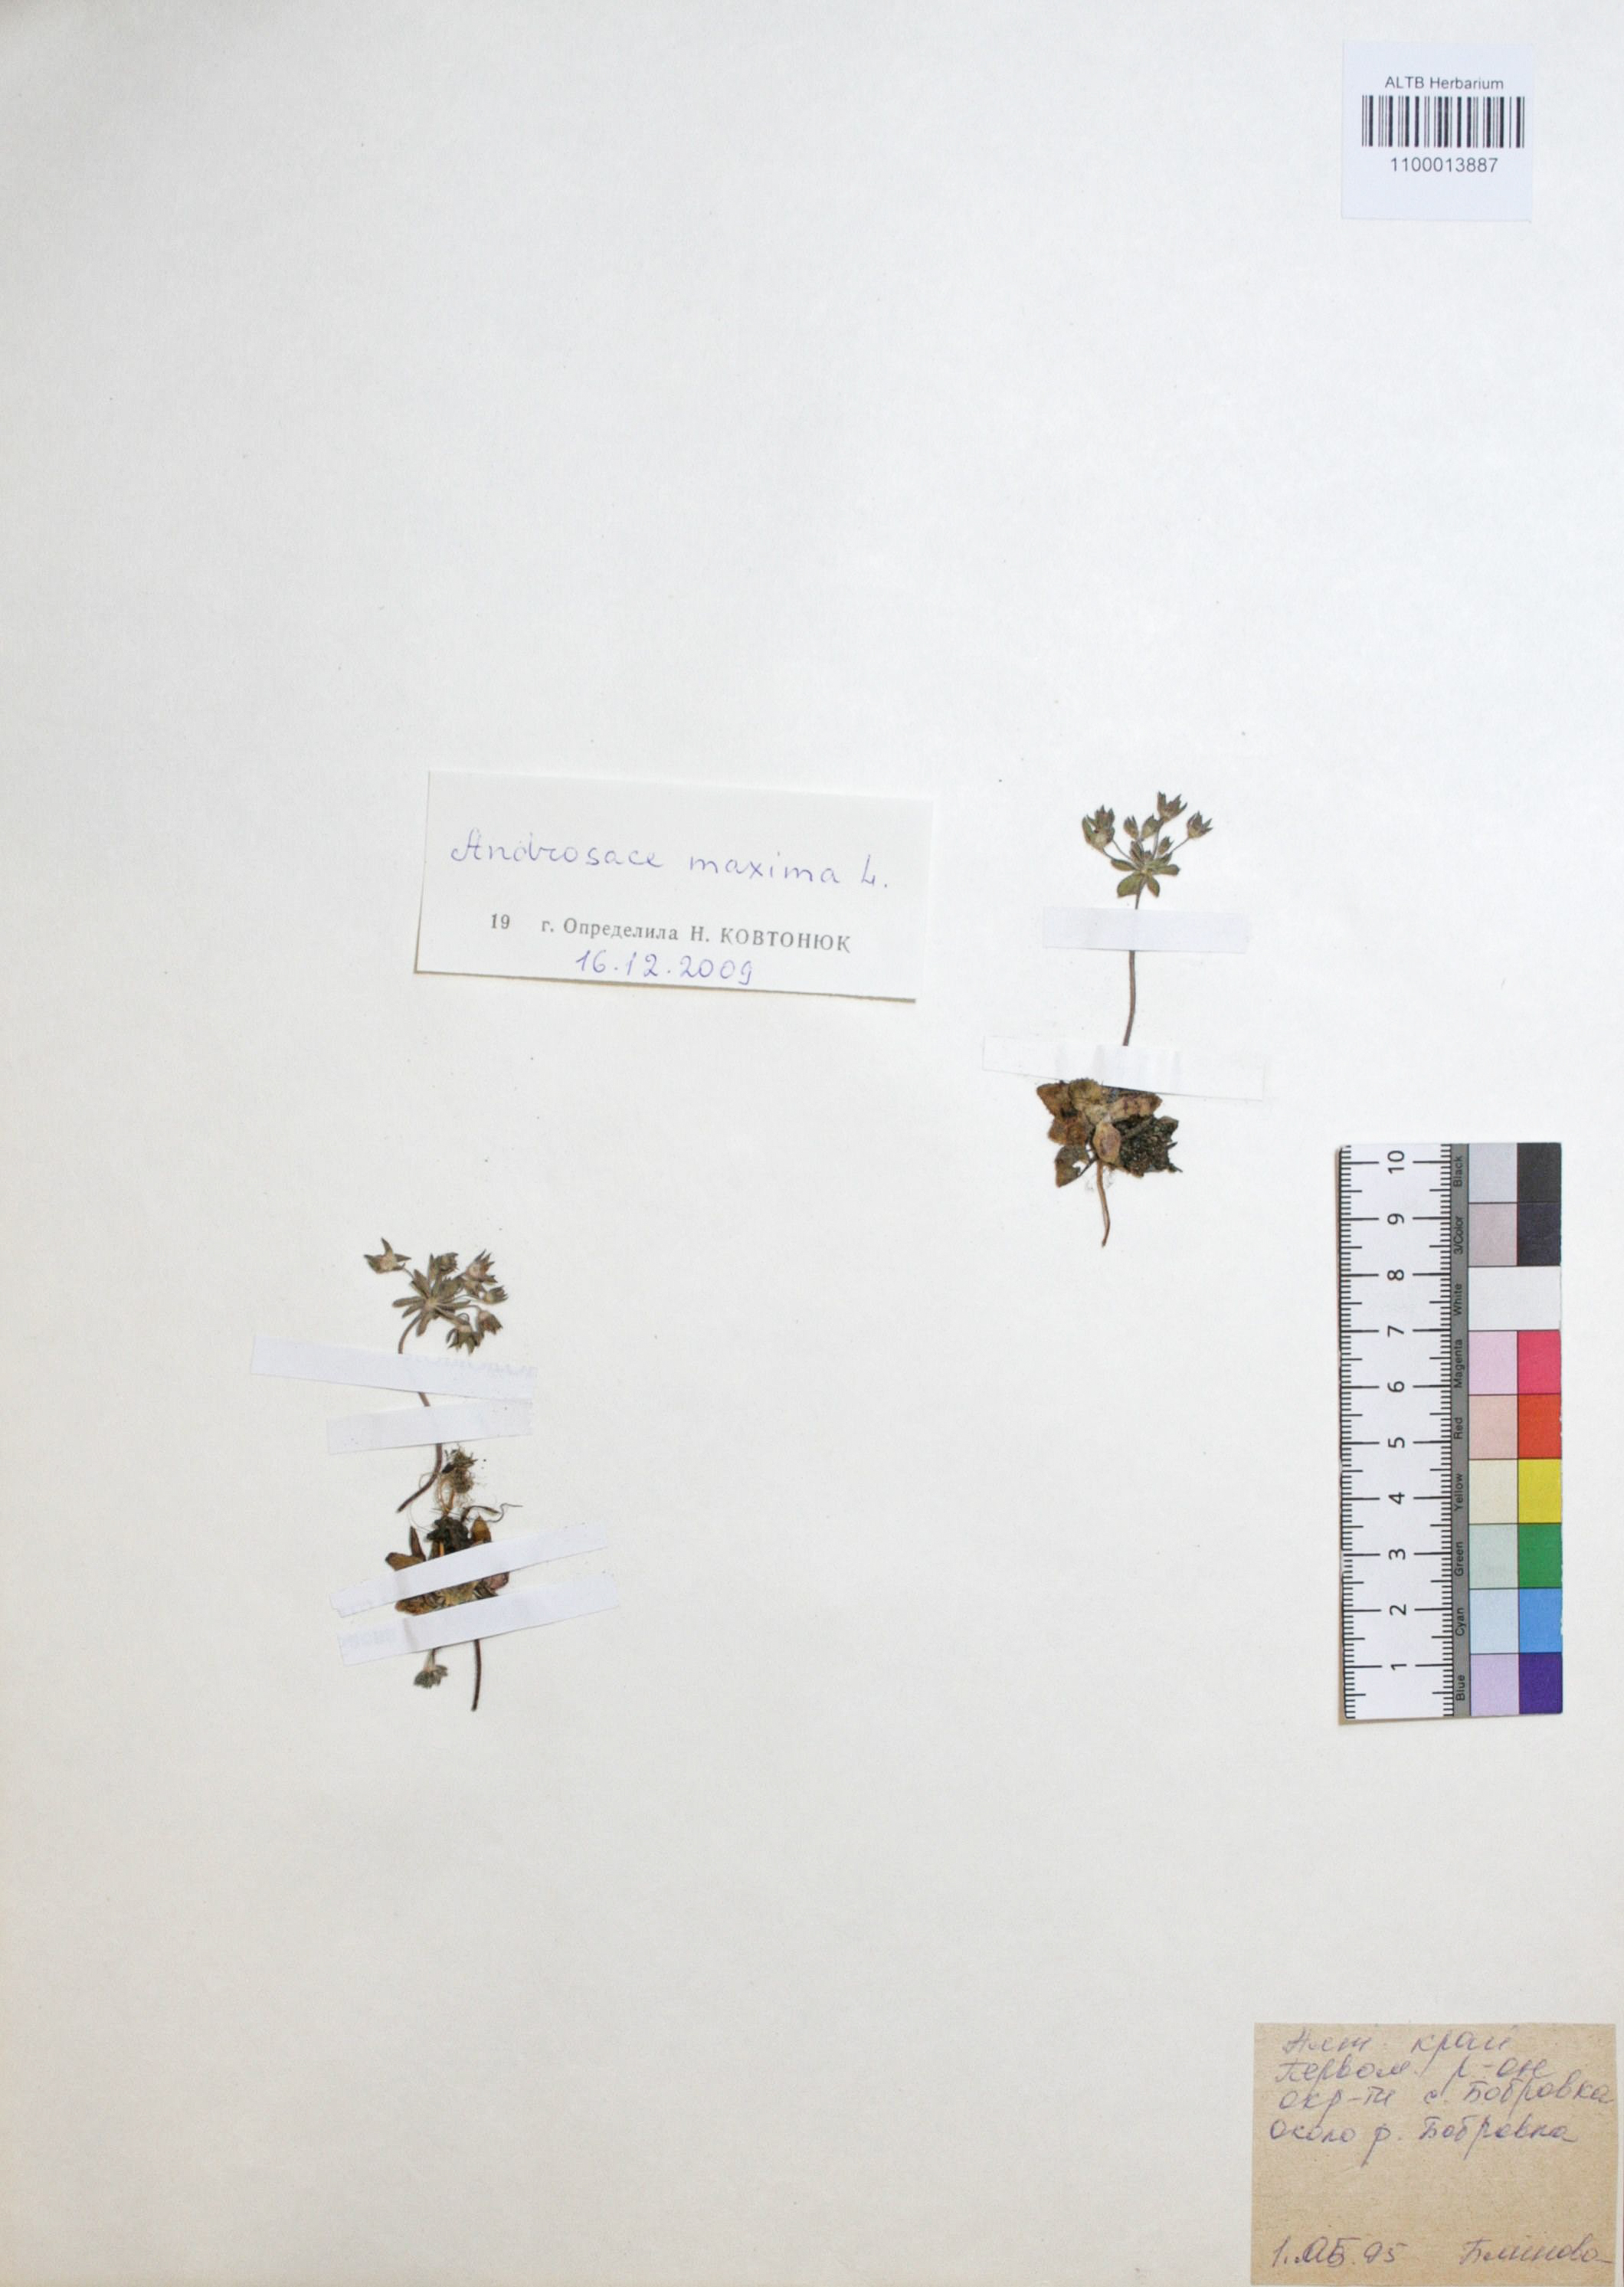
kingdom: Plantae
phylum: Tracheophyta
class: Magnoliopsida
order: Ericales
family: Primulaceae
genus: Androsace
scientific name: Androsace maxima
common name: Annual androsace
